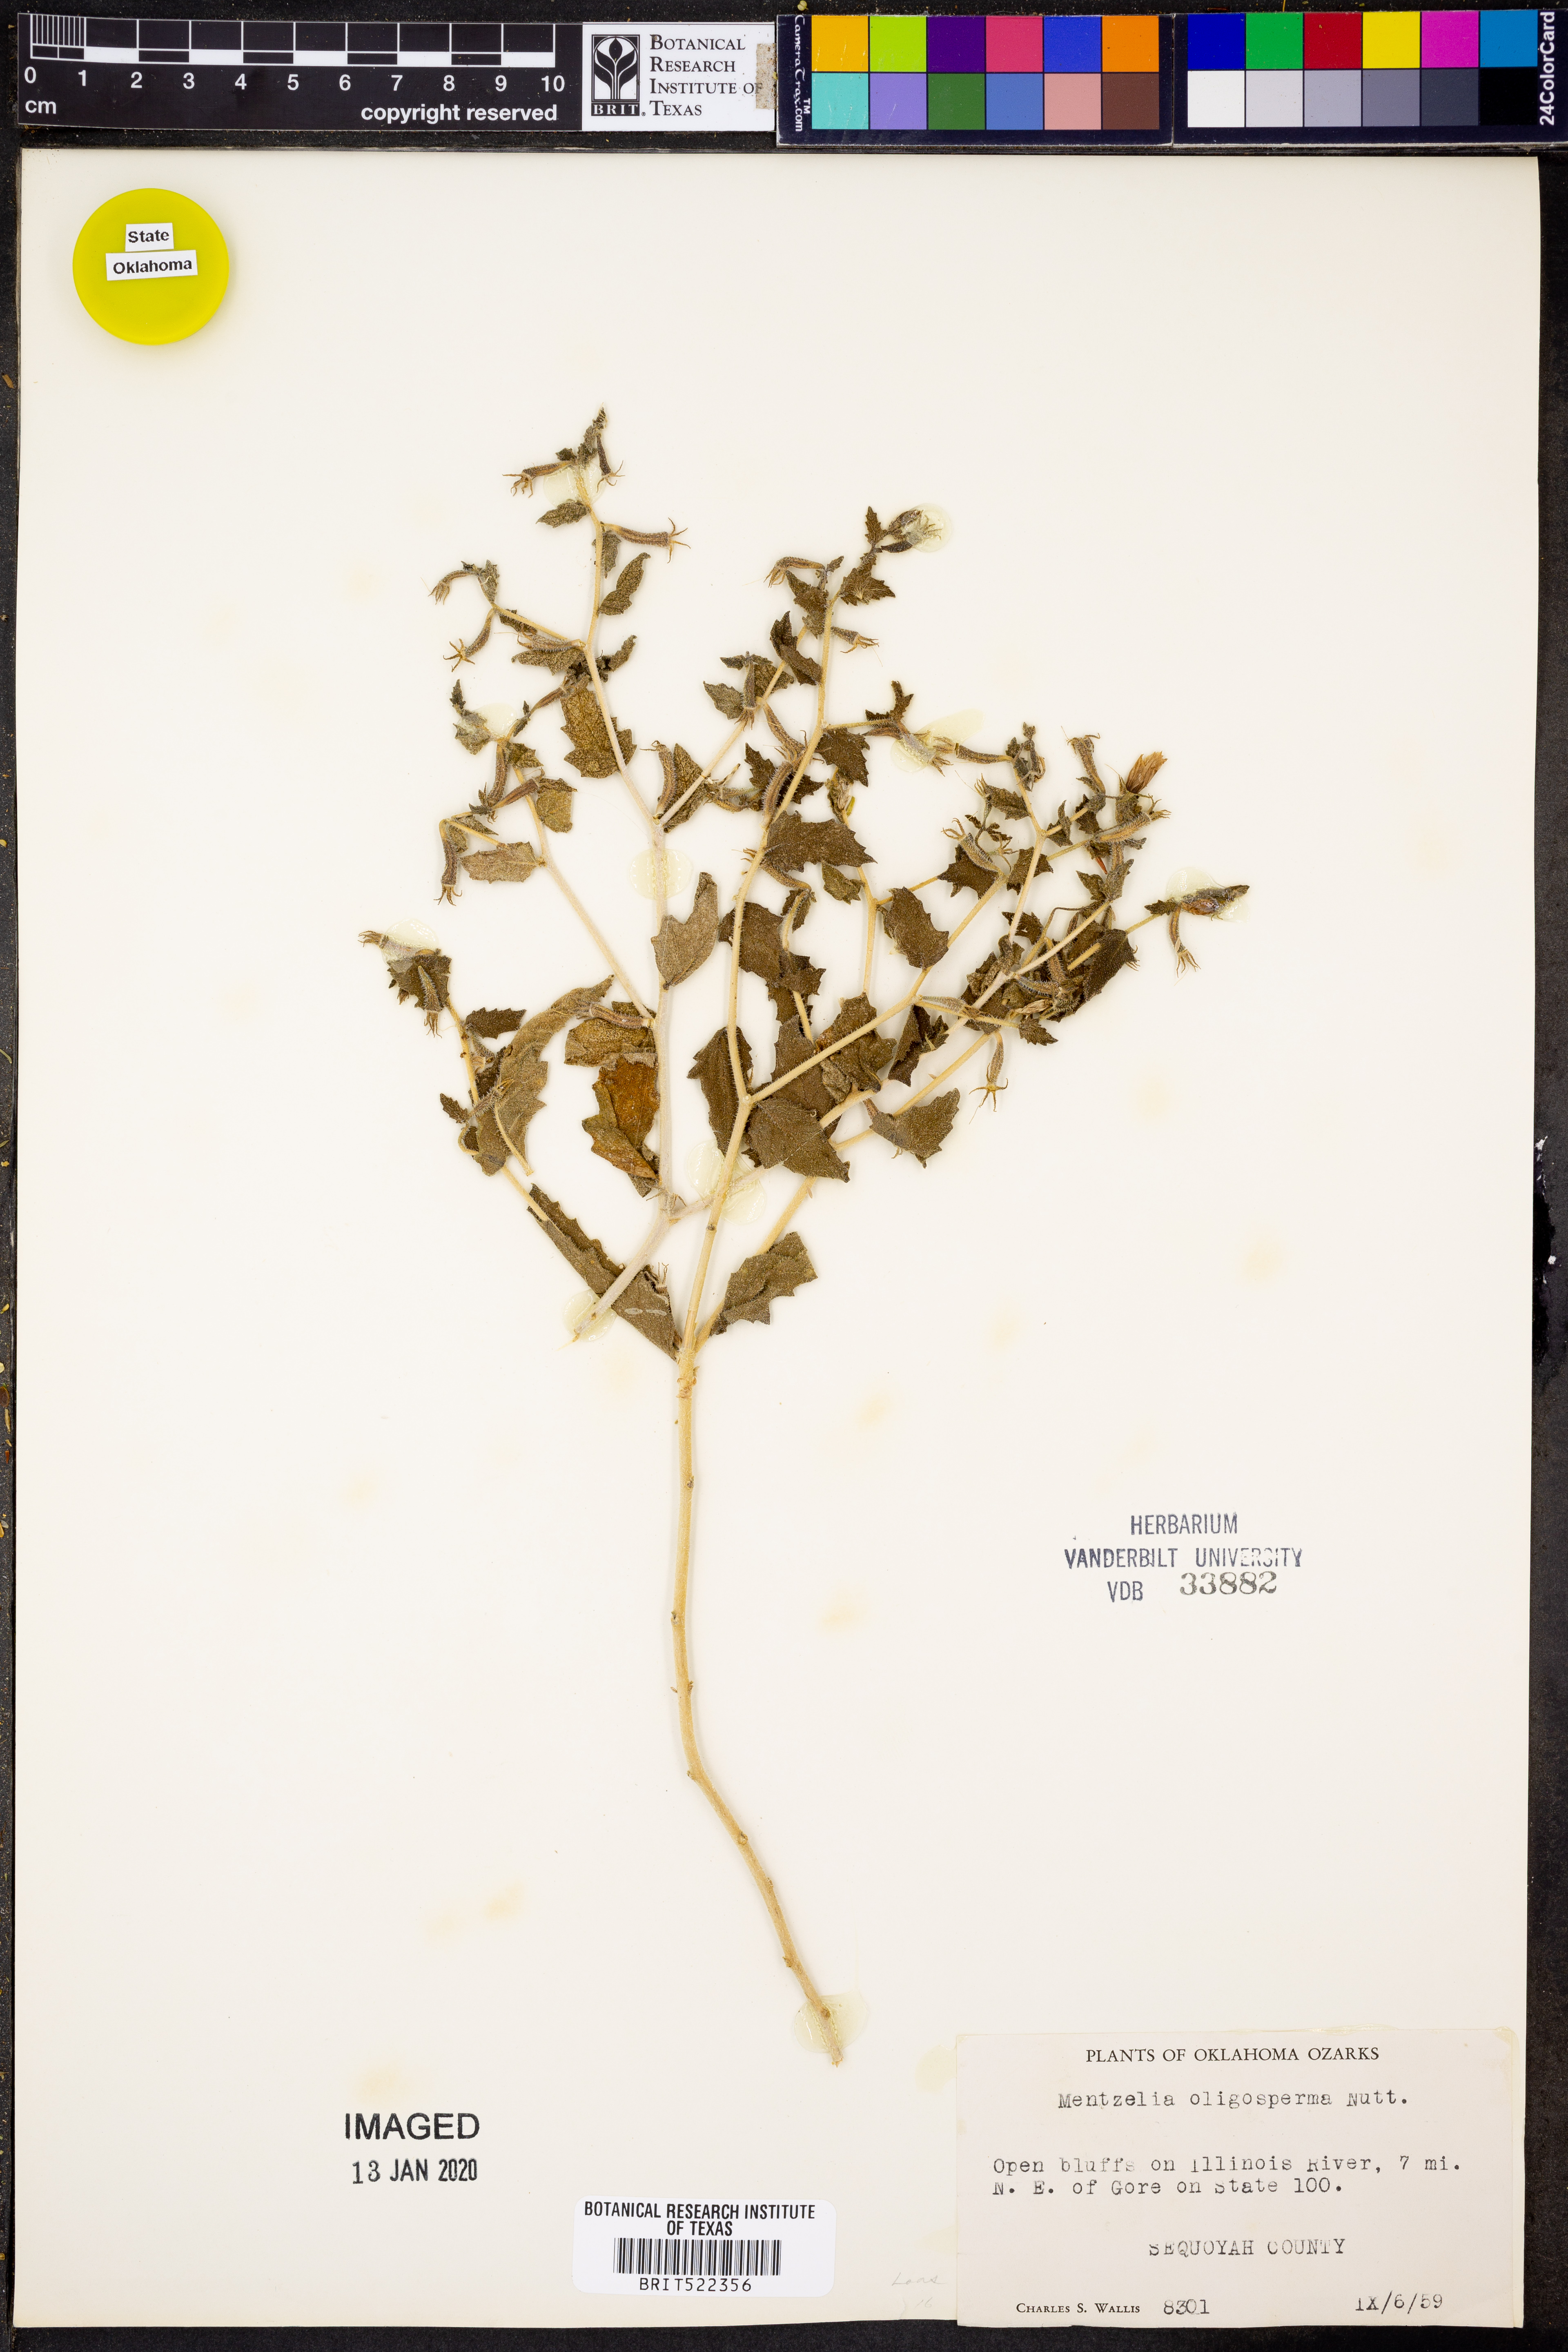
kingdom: Plantae
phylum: Tracheophyta
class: Magnoliopsida
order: Cornales
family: Loasaceae
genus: Mentzelia
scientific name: Mentzelia oligosperma
